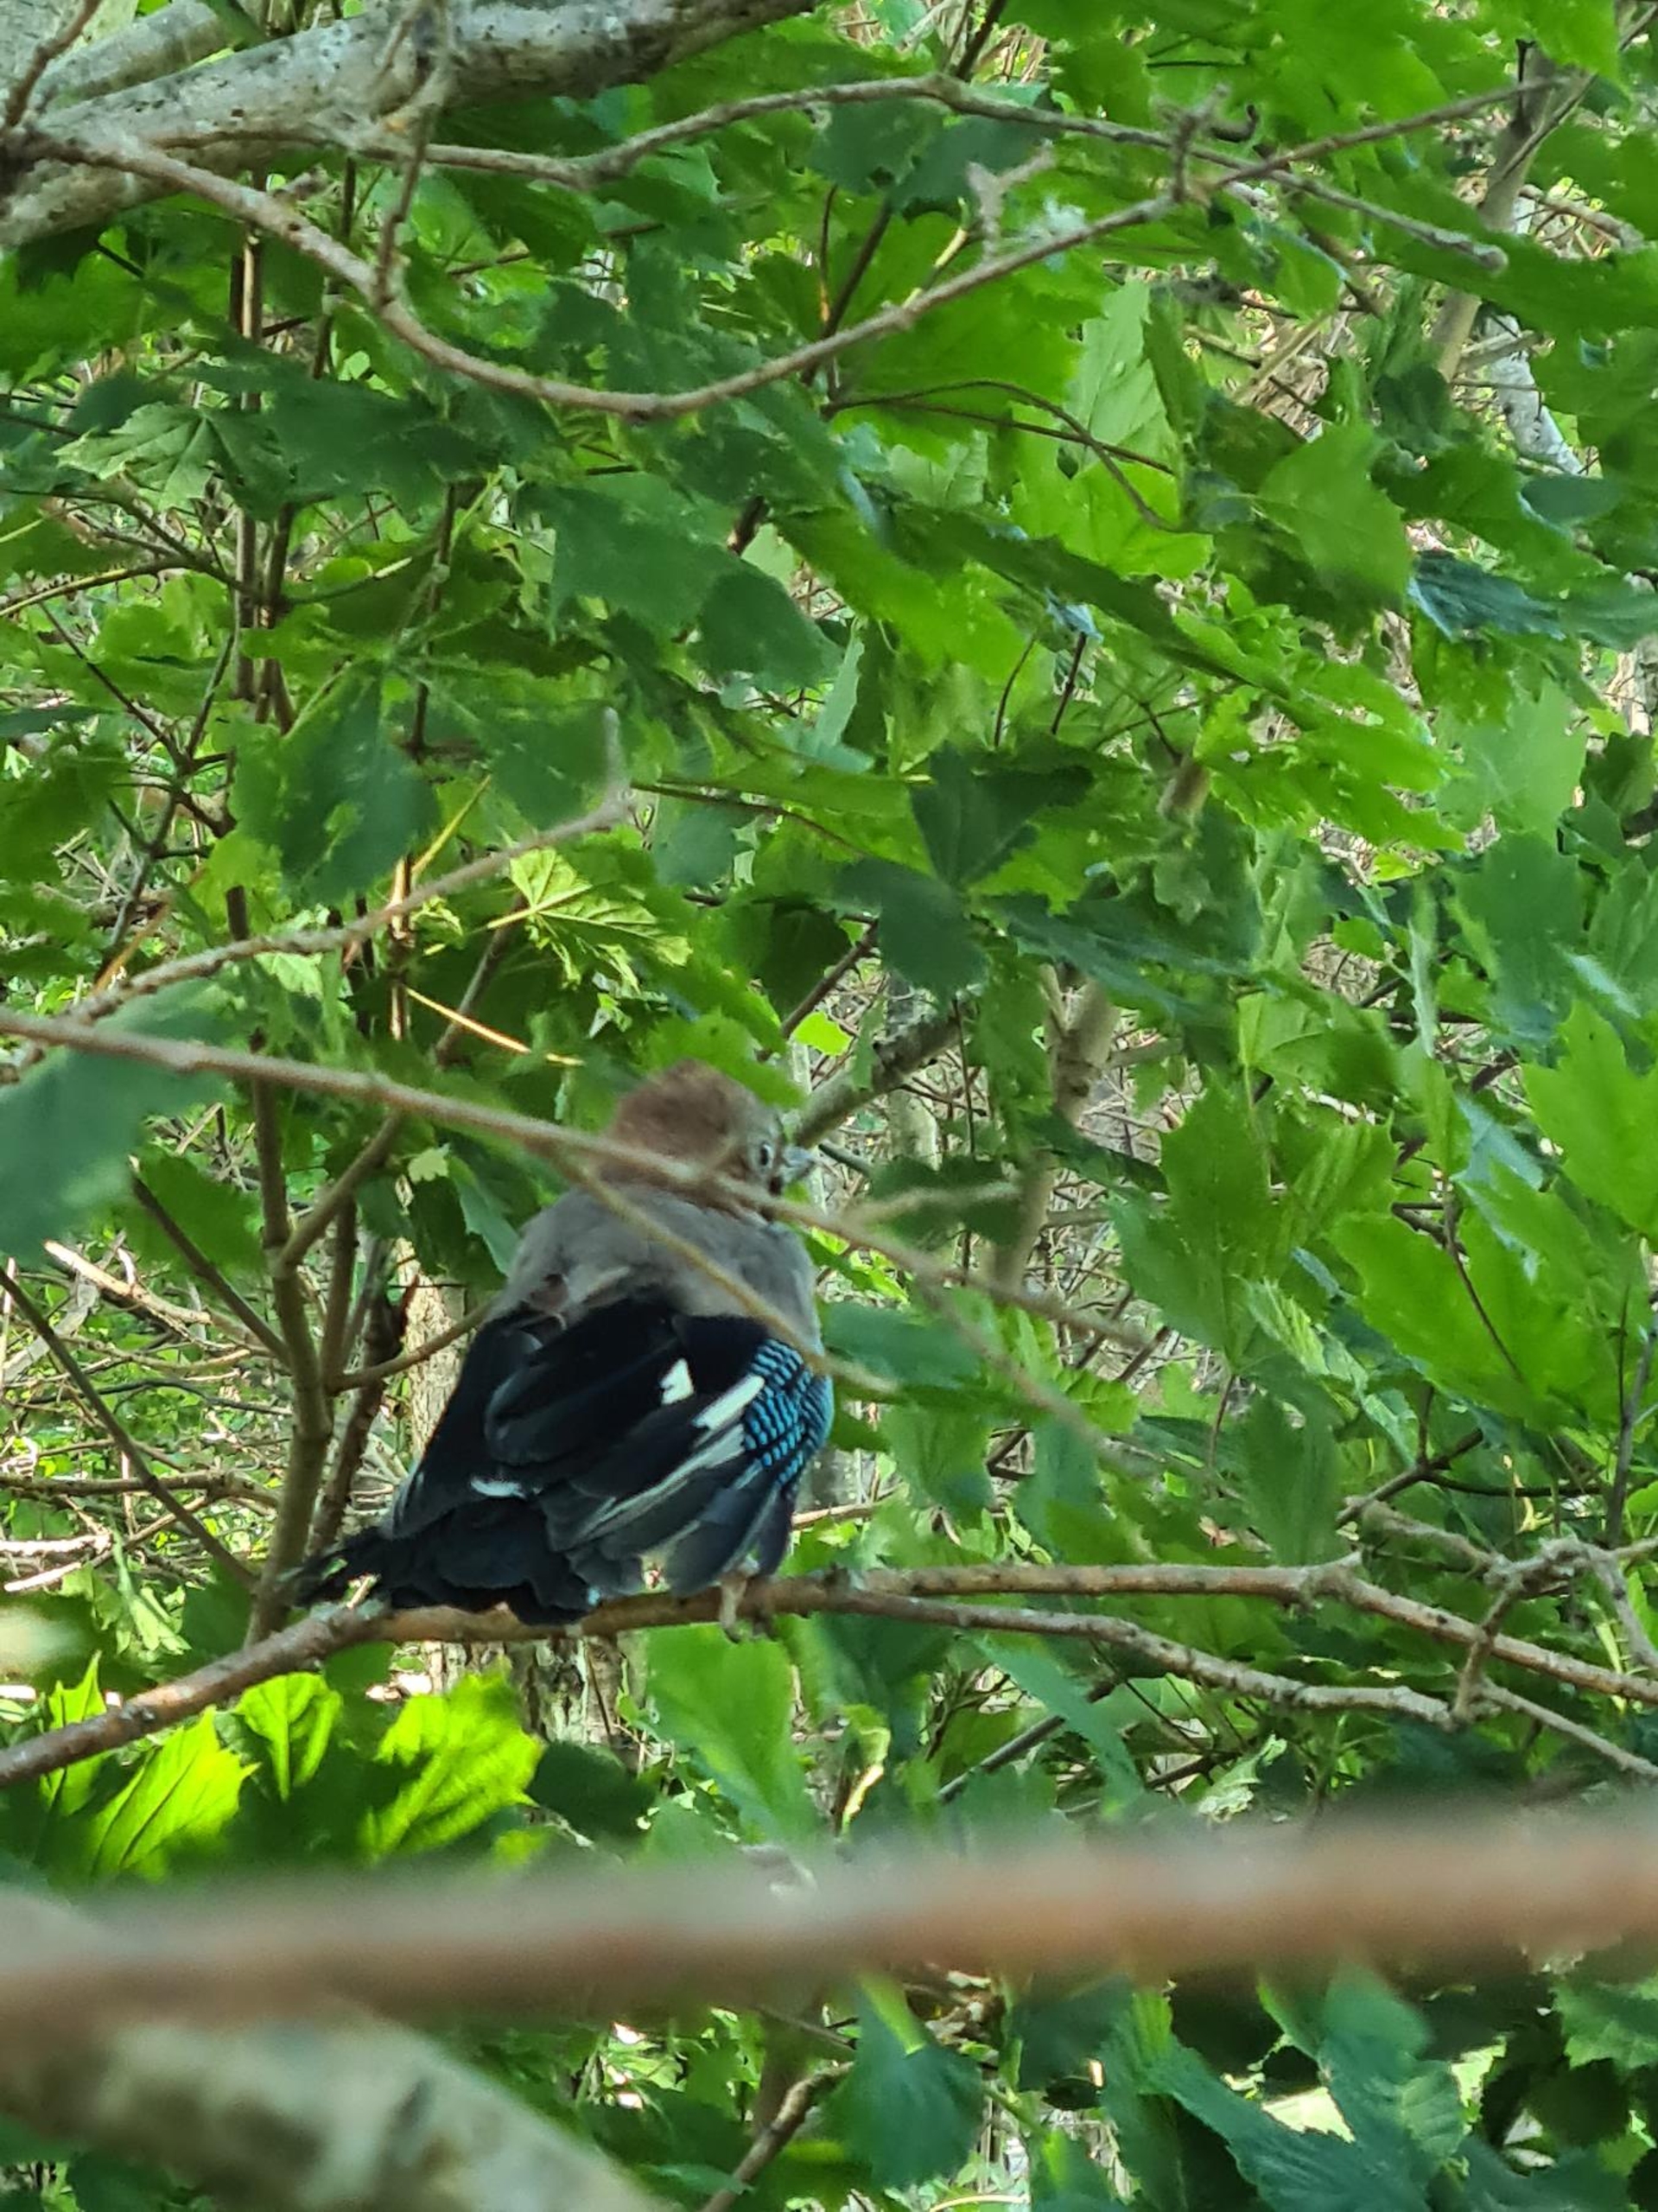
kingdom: Animalia
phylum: Chordata
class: Aves
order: Passeriformes
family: Corvidae
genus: Garrulus
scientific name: Garrulus glandarius
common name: Skovskade
